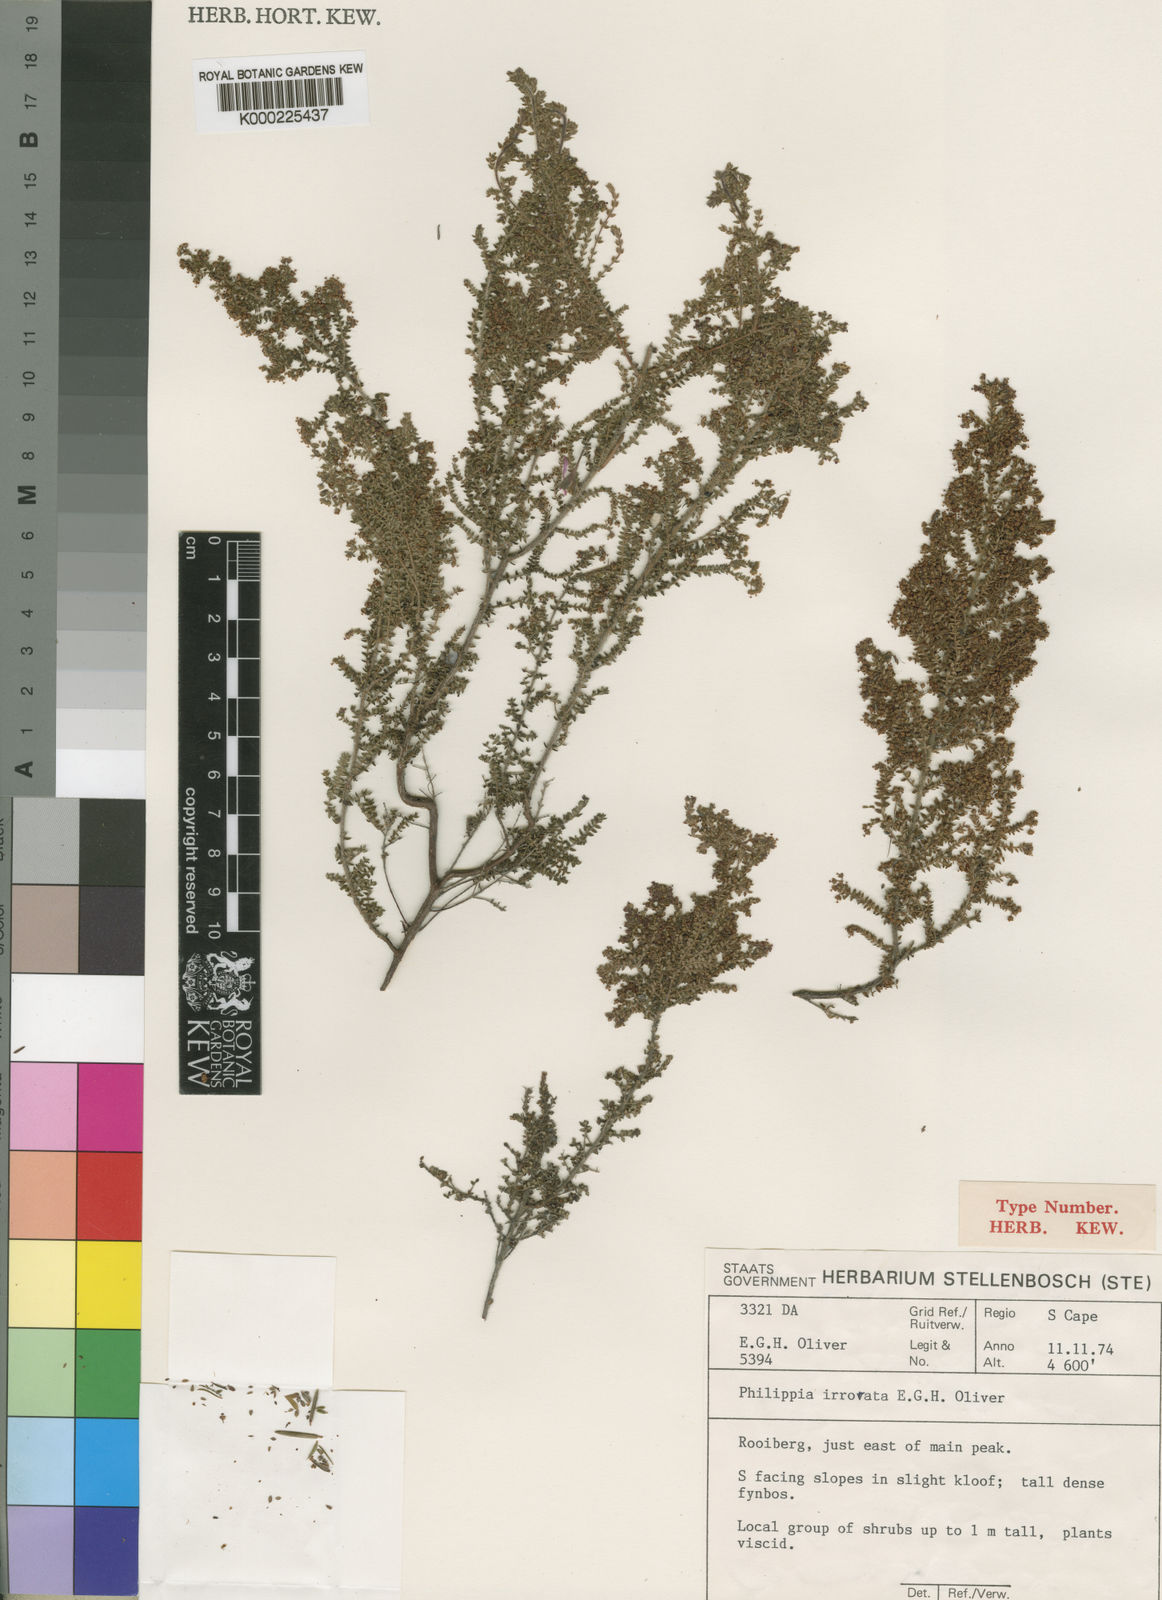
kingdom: Plantae
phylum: Tracheophyta
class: Magnoliopsida
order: Ericales
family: Ericaceae
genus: Erica
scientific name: Erica madida
